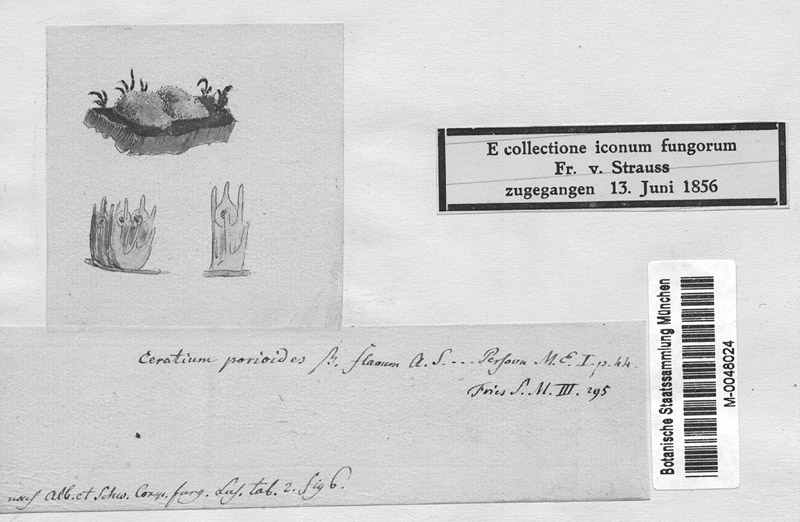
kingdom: Protozoa
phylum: Mycetozoa
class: Protosteliomycetes
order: Ceratiomyxales
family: Ceratiomyxaceae
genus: Ceratiomyxa
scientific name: Ceratiomyxa fruticulosa
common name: Honeycomb coral slime mold
